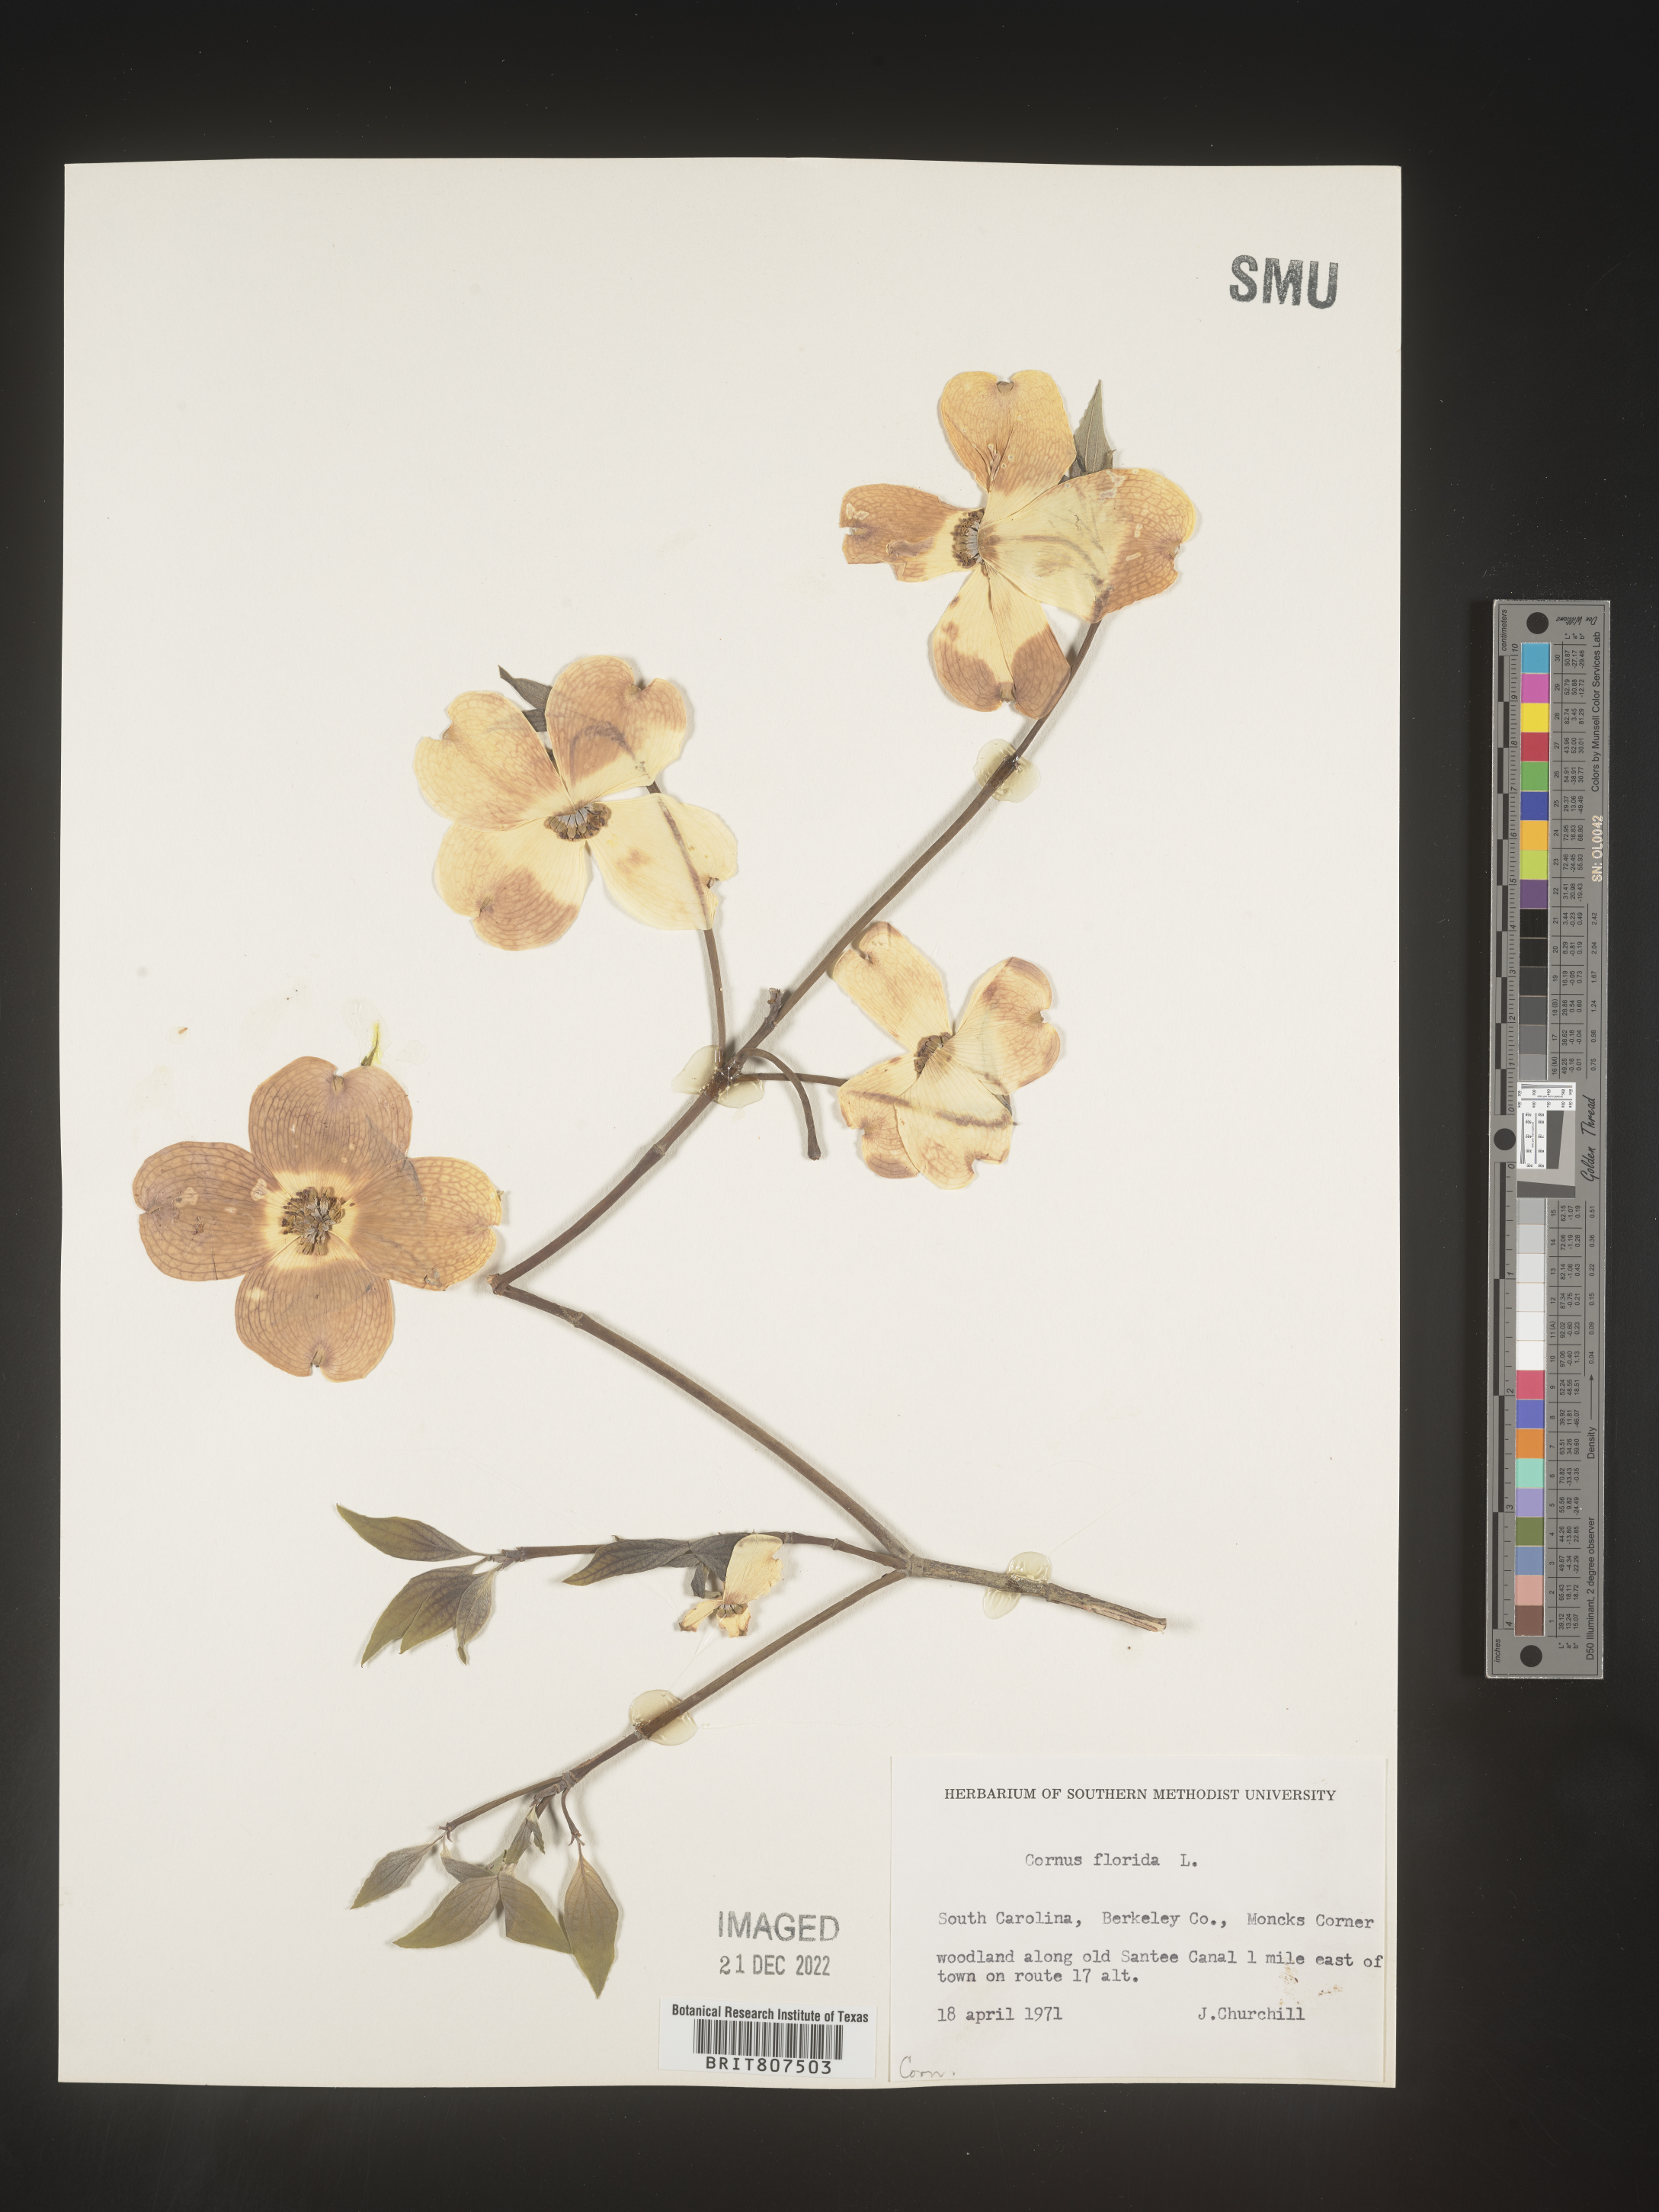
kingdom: Plantae
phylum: Tracheophyta
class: Magnoliopsida
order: Cornales
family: Cornaceae
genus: Cornus
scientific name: Cornus florida
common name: Flowering dogwood
